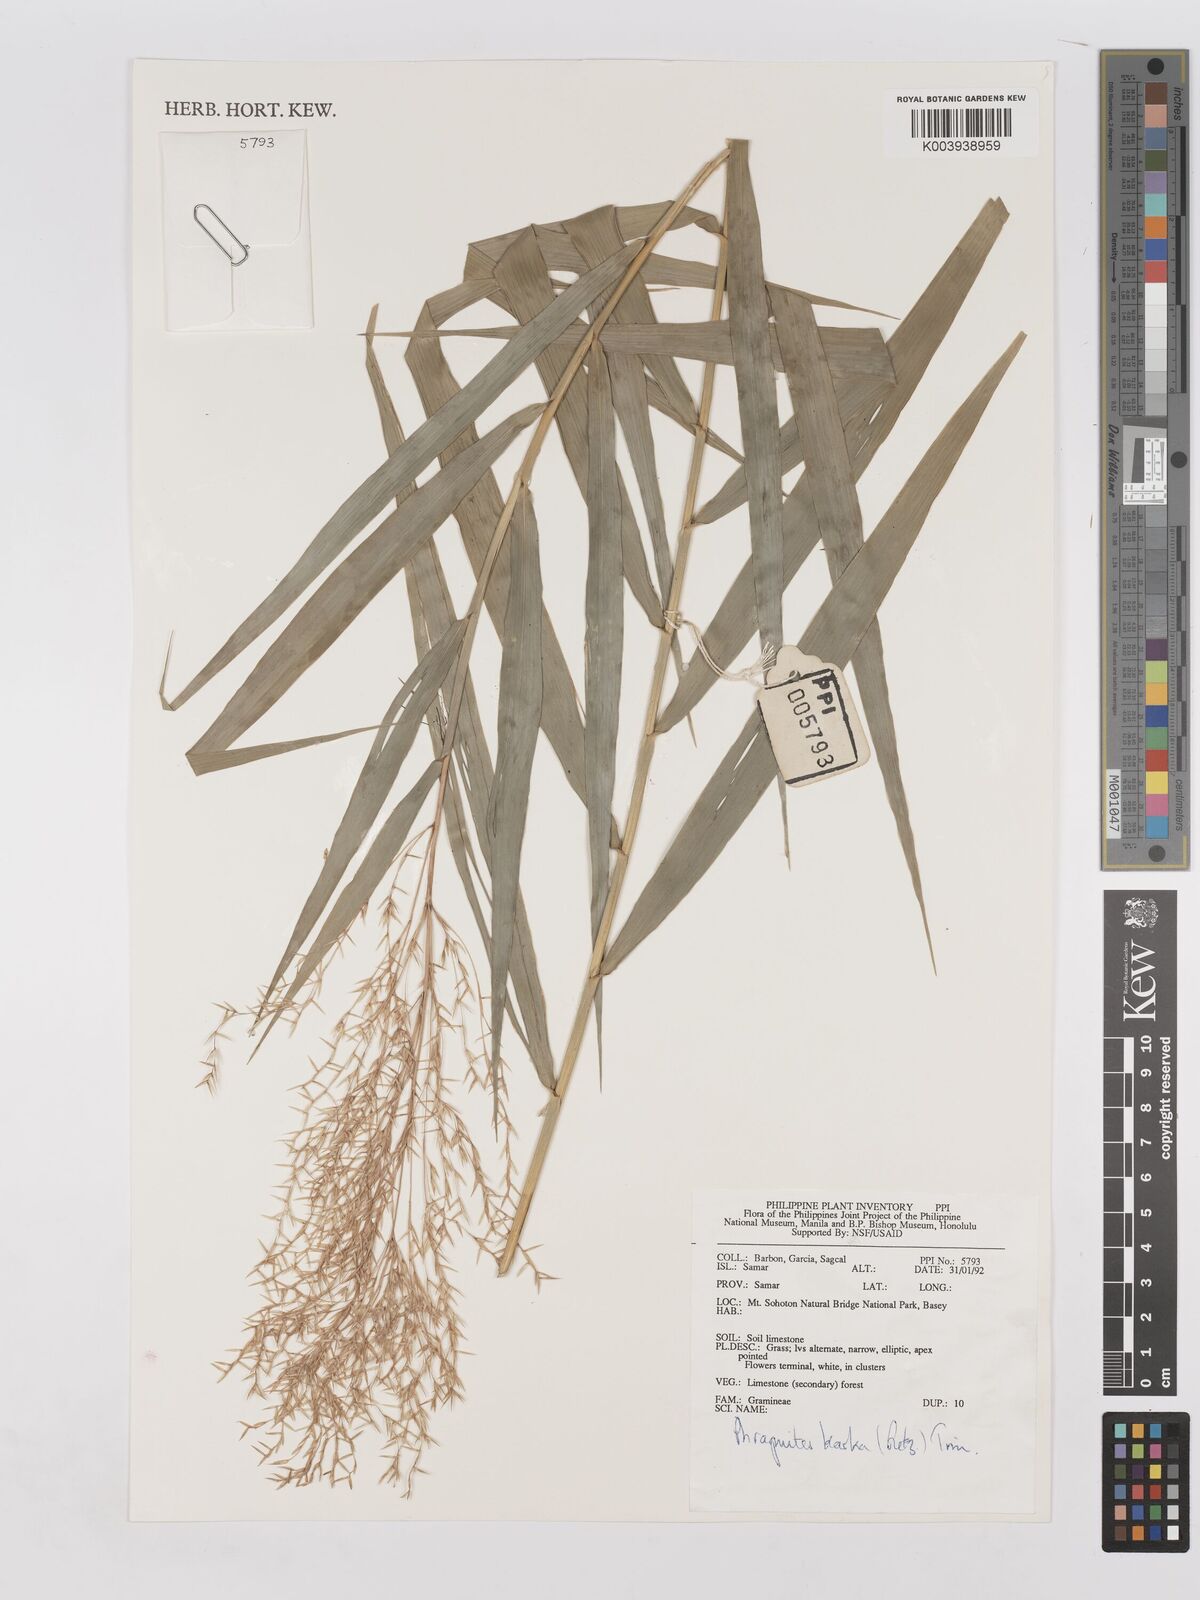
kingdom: Plantae
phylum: Tracheophyta
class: Liliopsida
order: Poales
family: Poaceae
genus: Phragmites
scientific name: Phragmites karka
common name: Tropical reed
